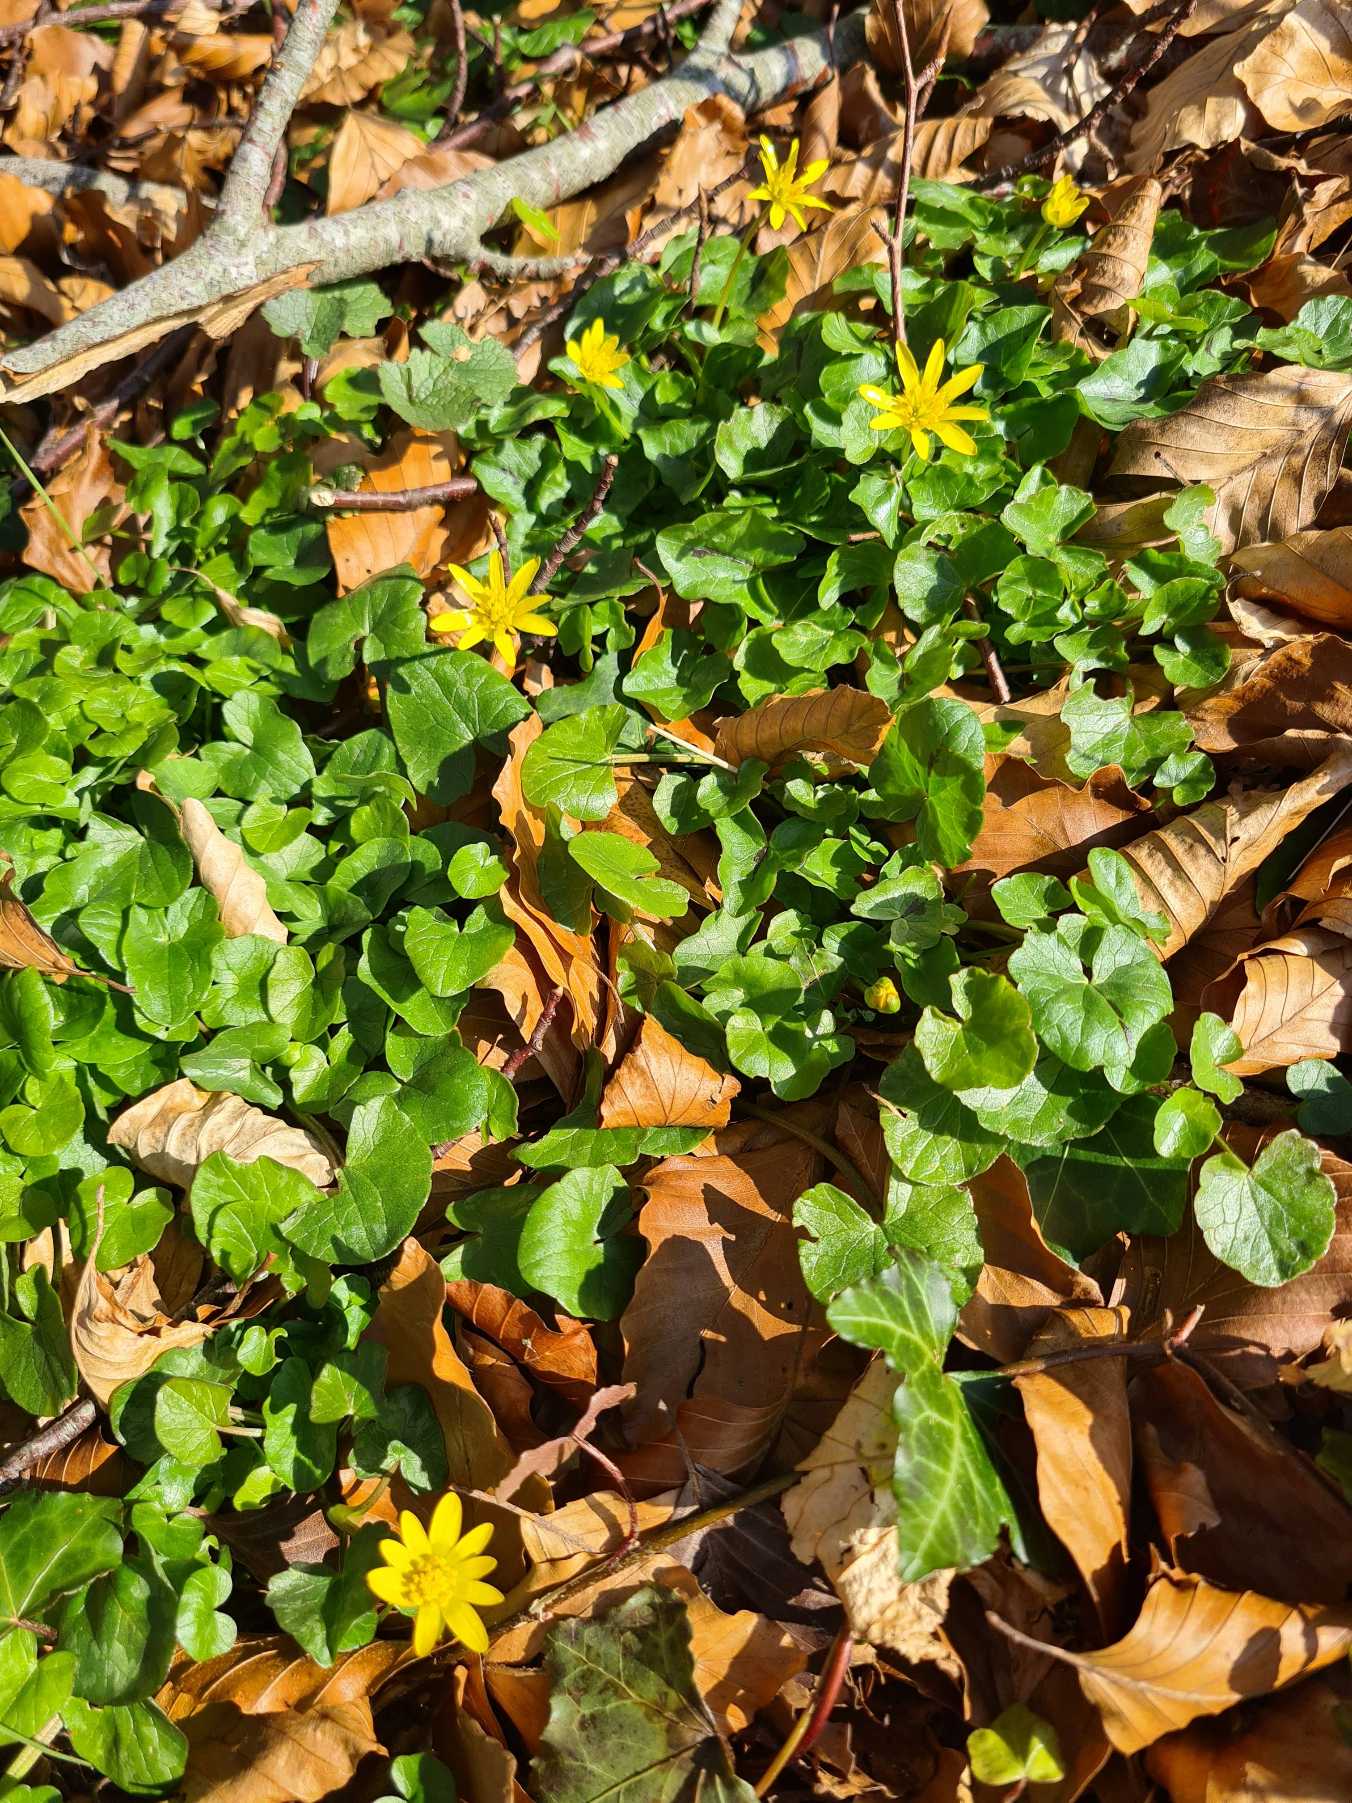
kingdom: Plantae
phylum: Tracheophyta
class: Magnoliopsida
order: Ranunculales
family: Ranunculaceae
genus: Ficaria
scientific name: Ficaria verna
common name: Vorterod
